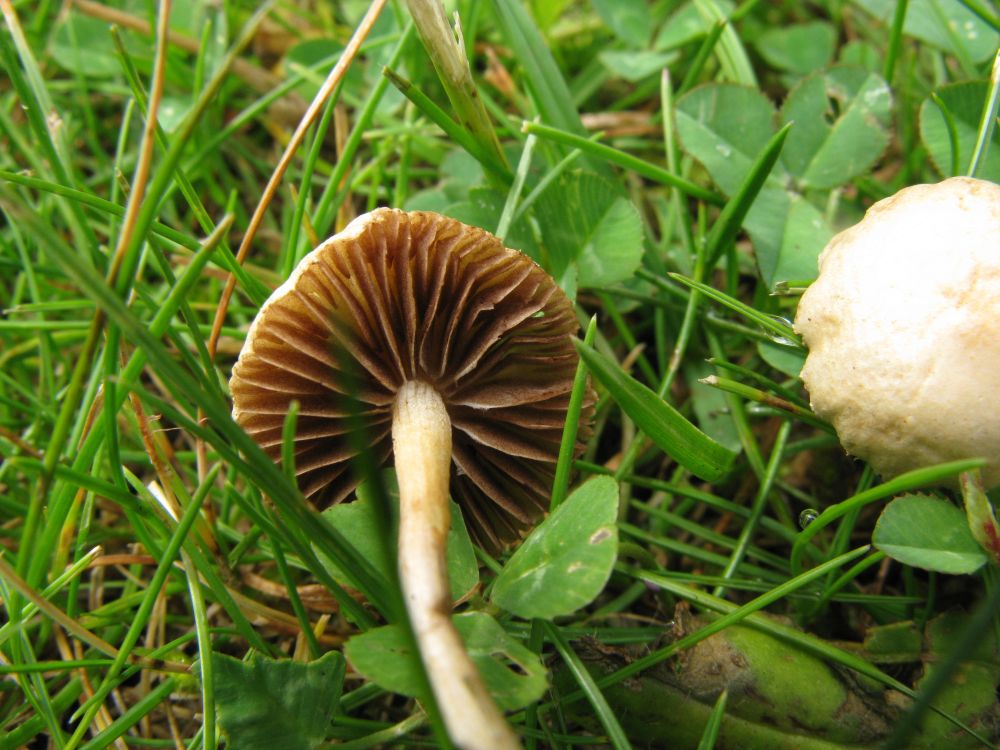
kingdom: Fungi
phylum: Basidiomycota
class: Agaricomycetes
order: Agaricales
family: Strophariaceae
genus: Agrocybe
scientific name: Agrocybe pediades
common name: almindelig agerhat
